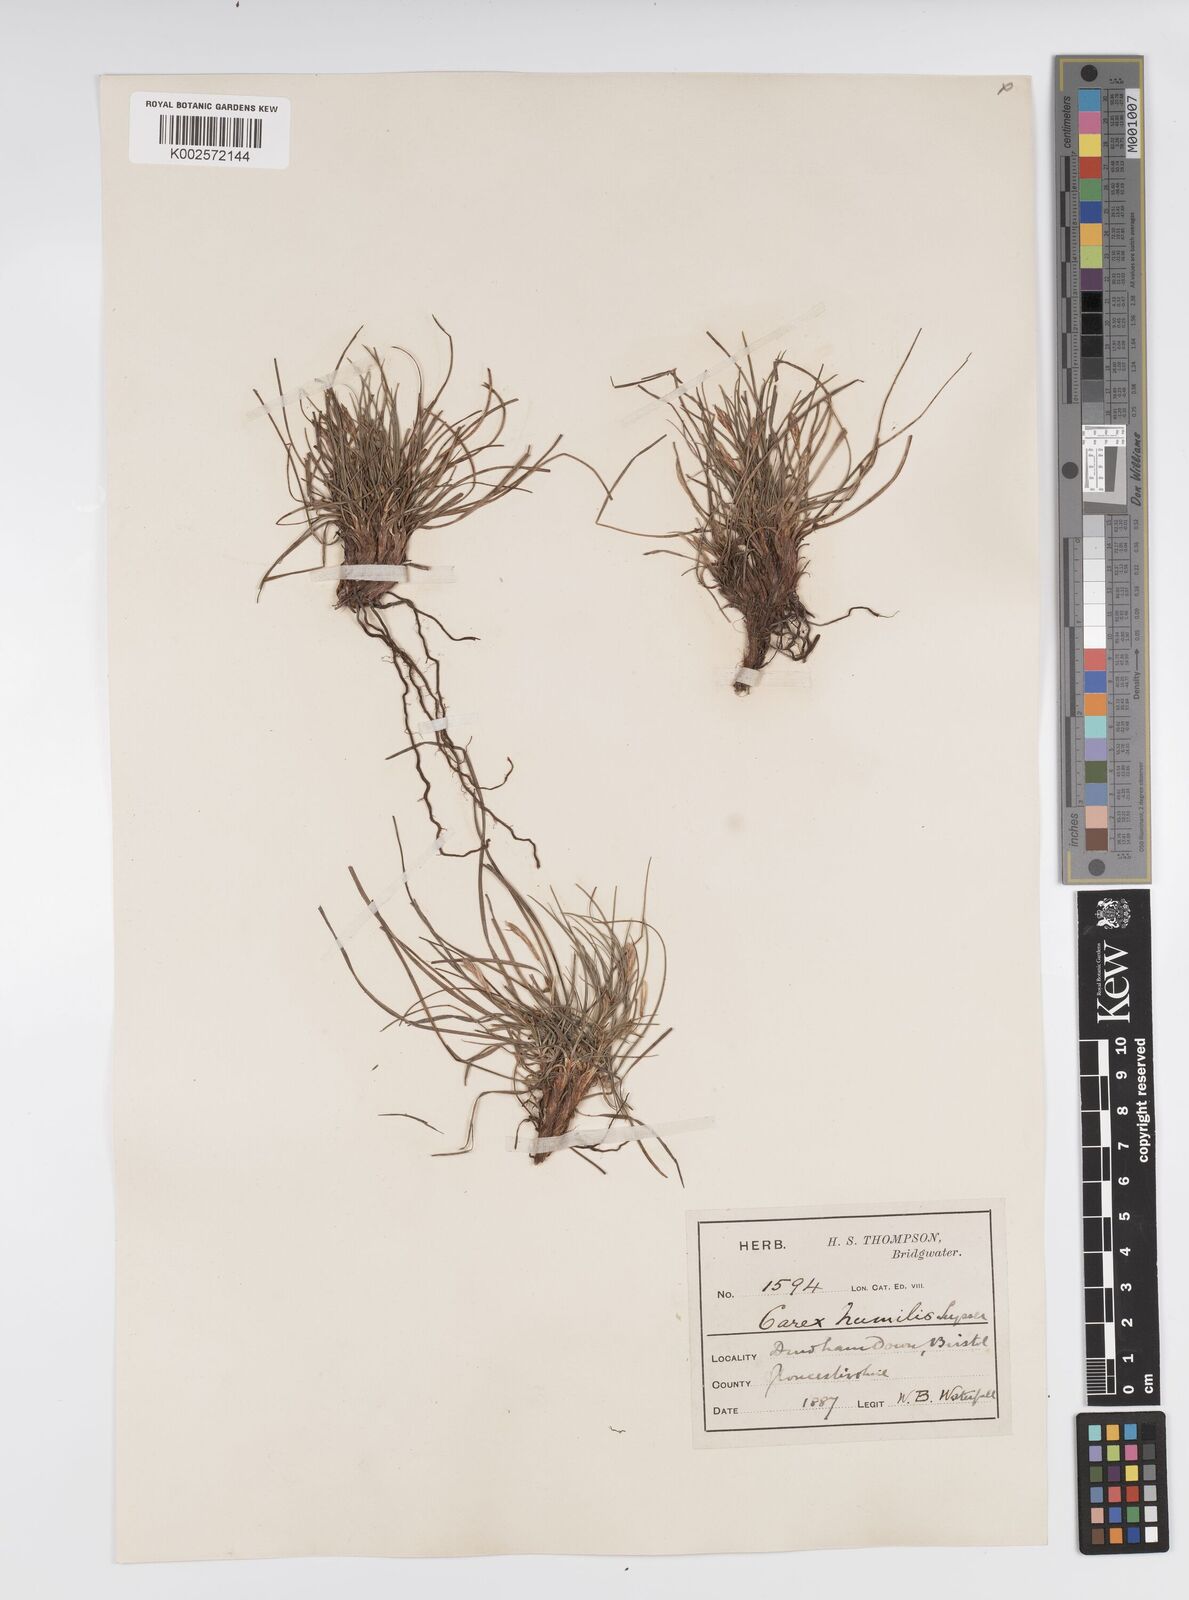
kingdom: Plantae
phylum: Tracheophyta
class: Liliopsida
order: Poales
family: Cyperaceae
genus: Carex
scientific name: Carex humilis
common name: Dwarf sedge
